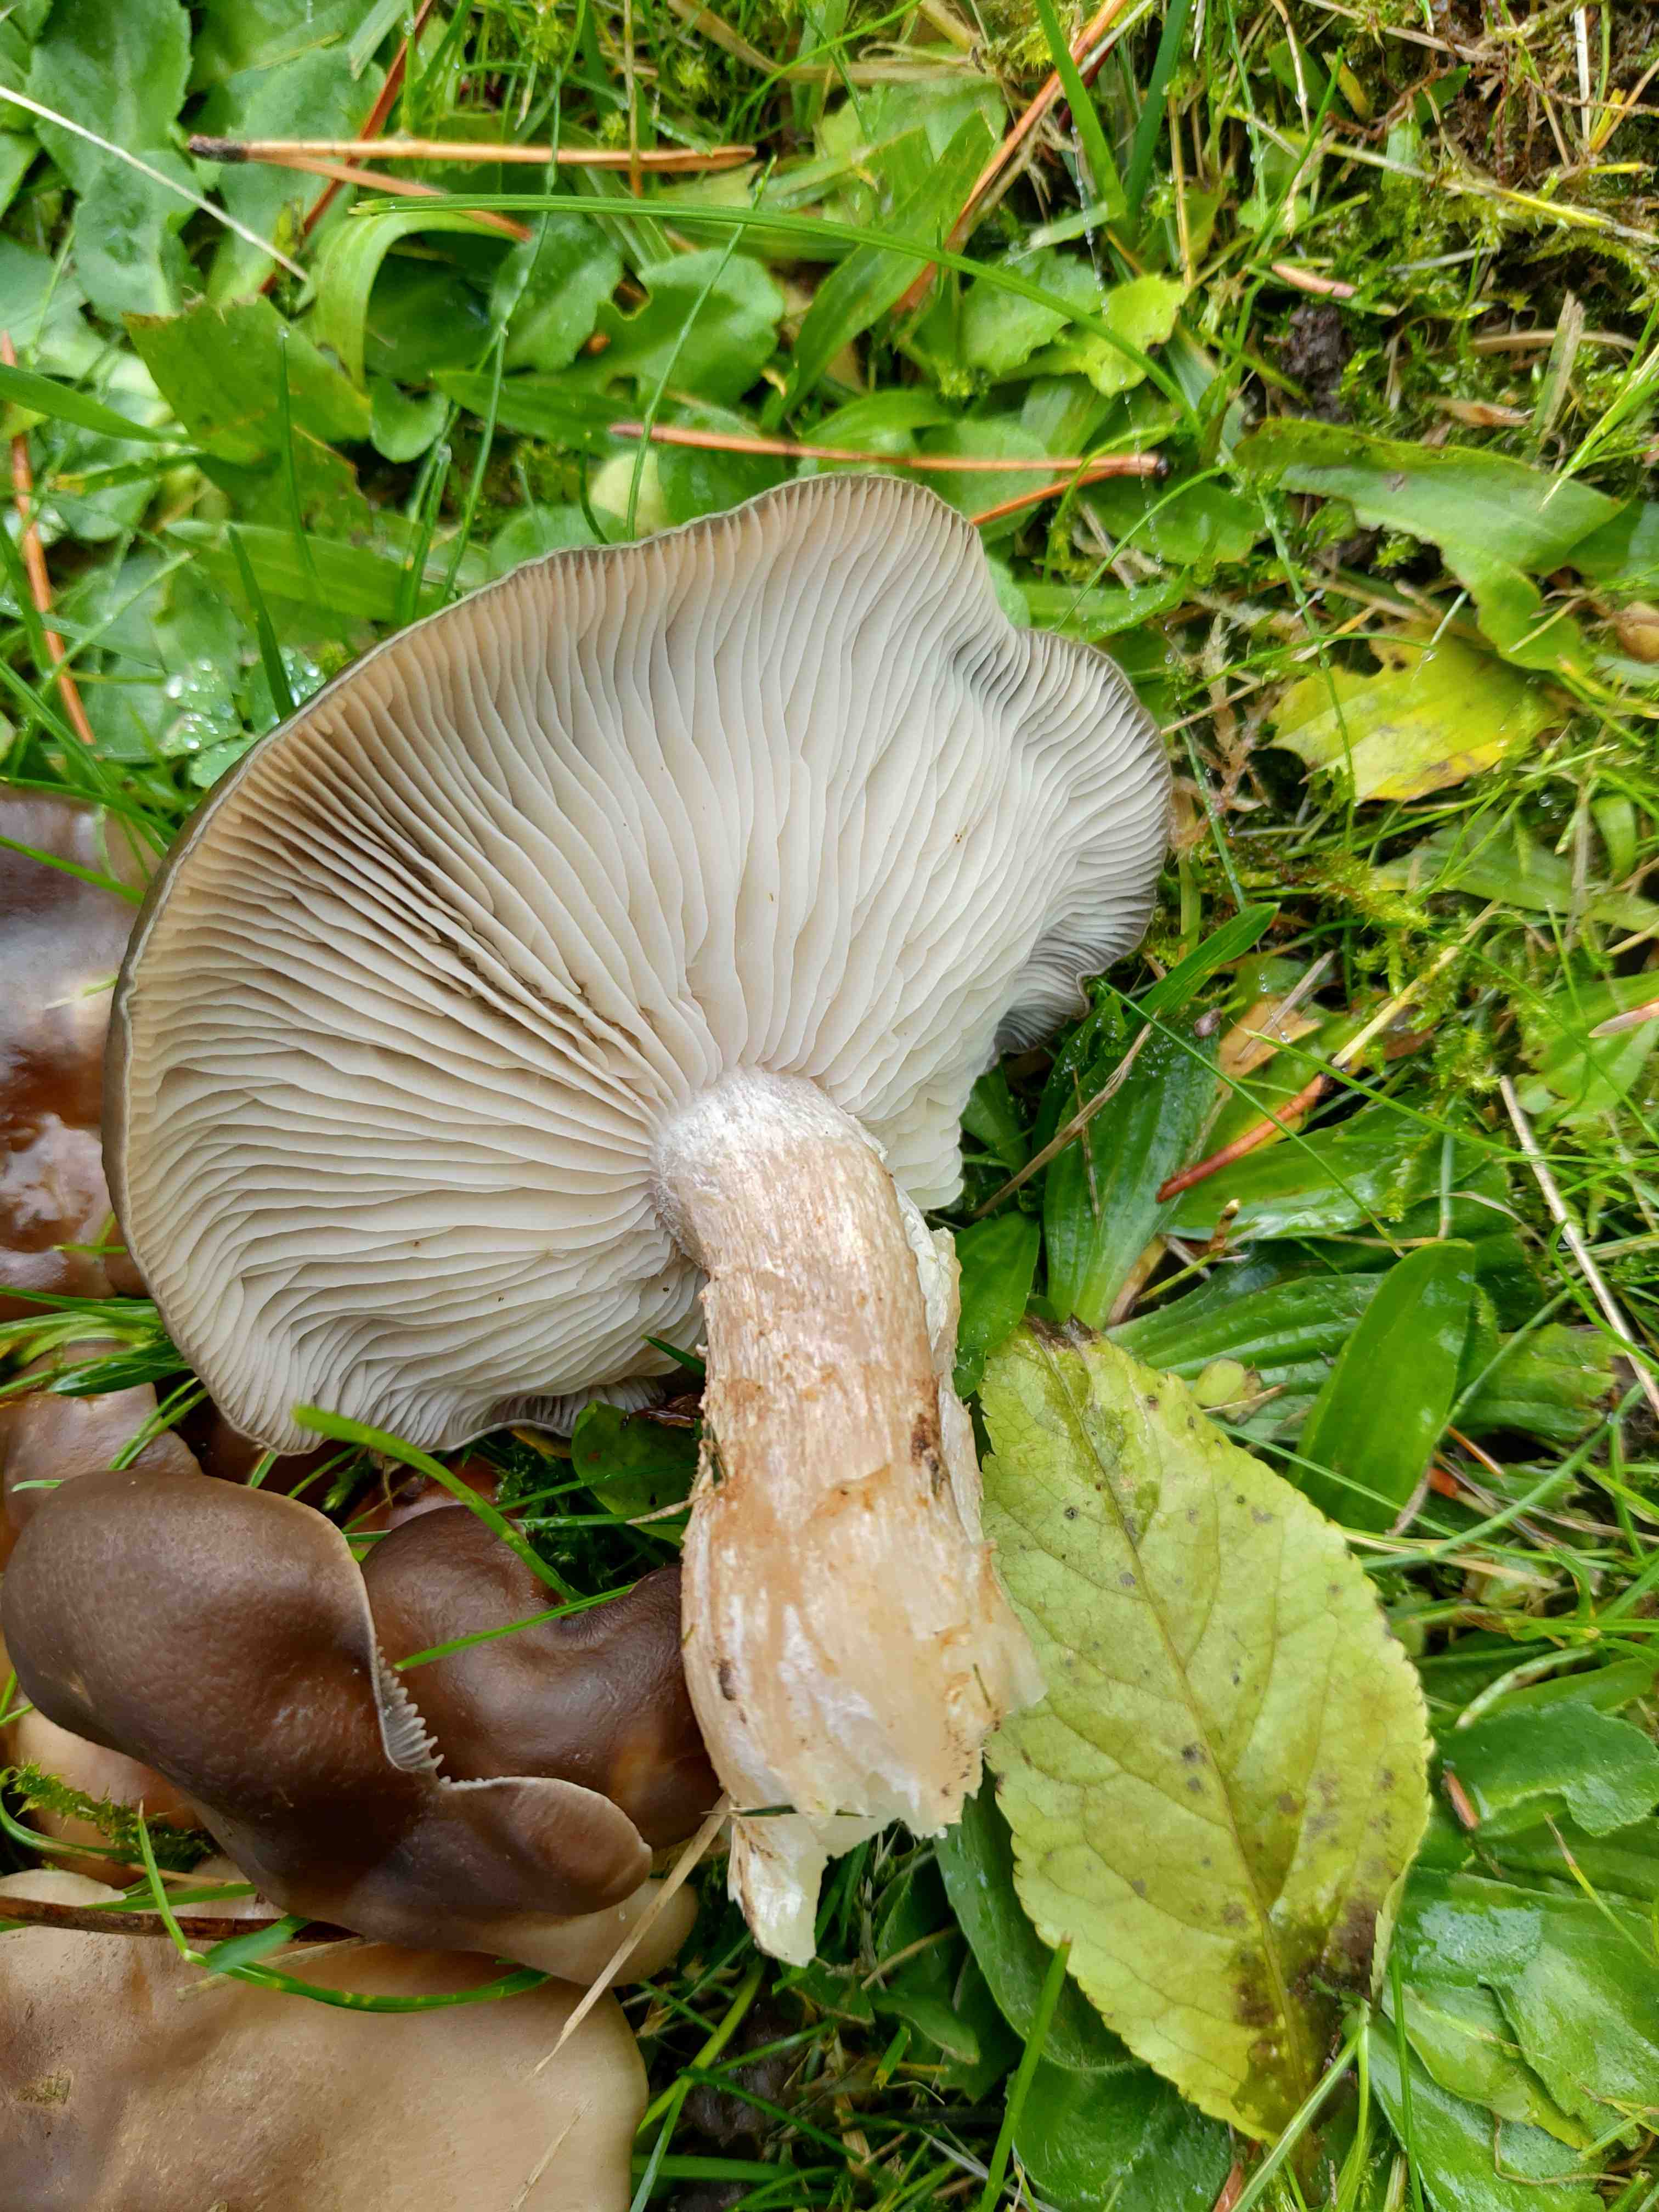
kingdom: Fungi
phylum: Basidiomycota
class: Agaricomycetes
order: Agaricales
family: Lyophyllaceae
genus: Lyophyllum
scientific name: Lyophyllum decastes
